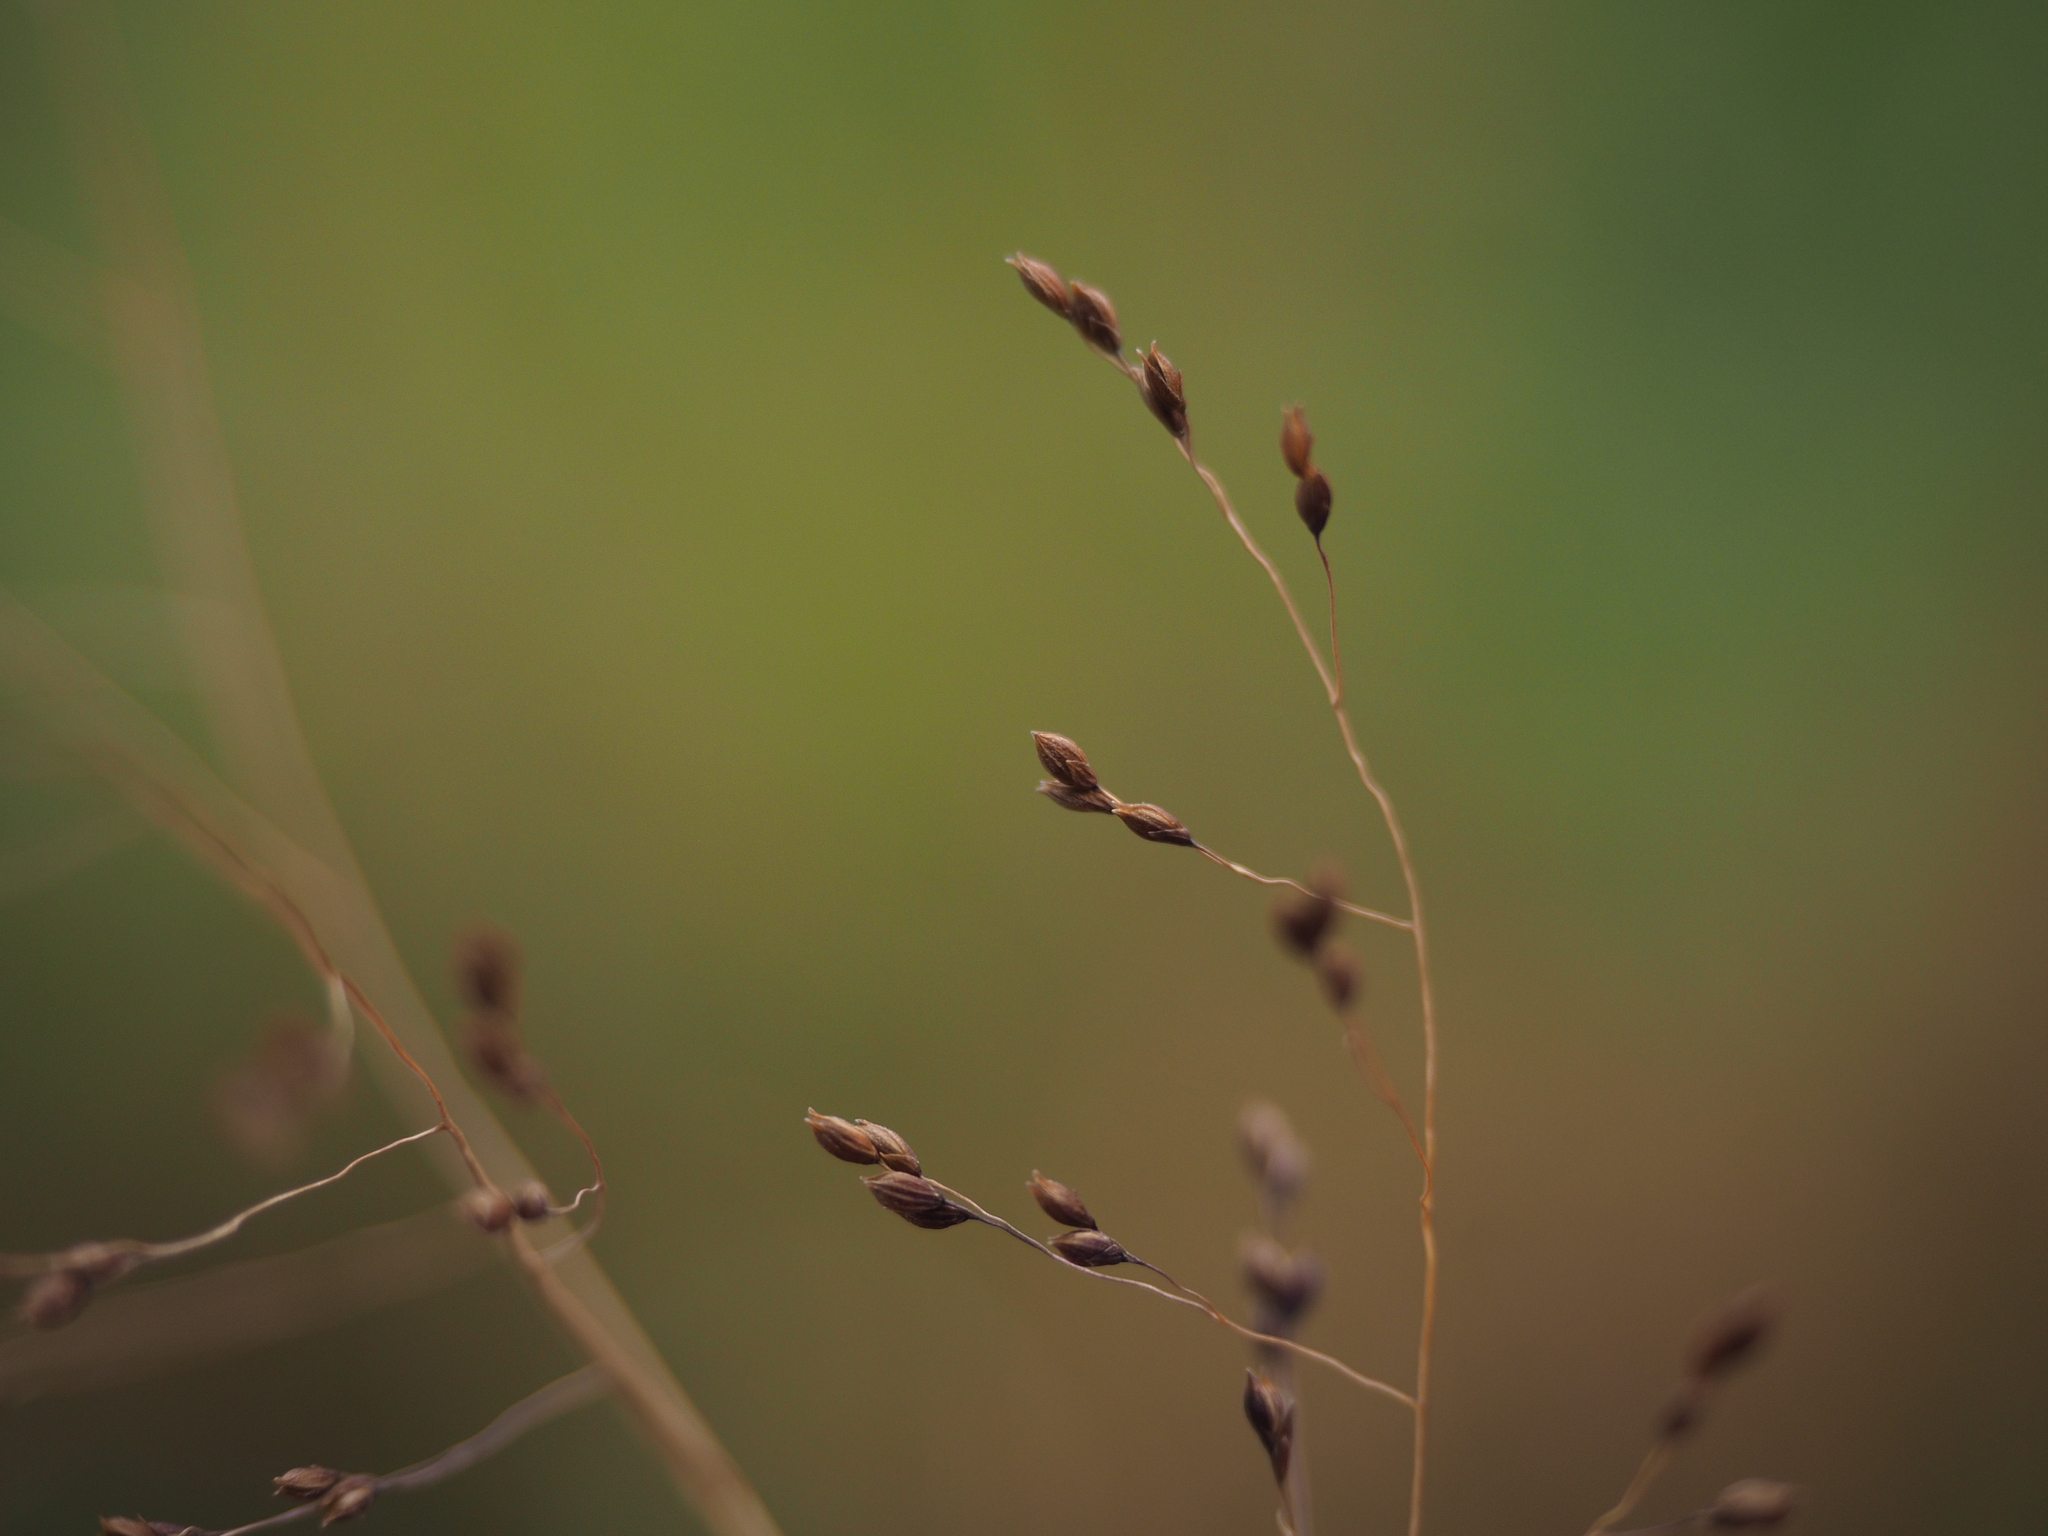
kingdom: Plantae
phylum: Tracheophyta
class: Liliopsida
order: Poales
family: Poaceae
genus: Panicum
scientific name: Panicum bisulcatum
